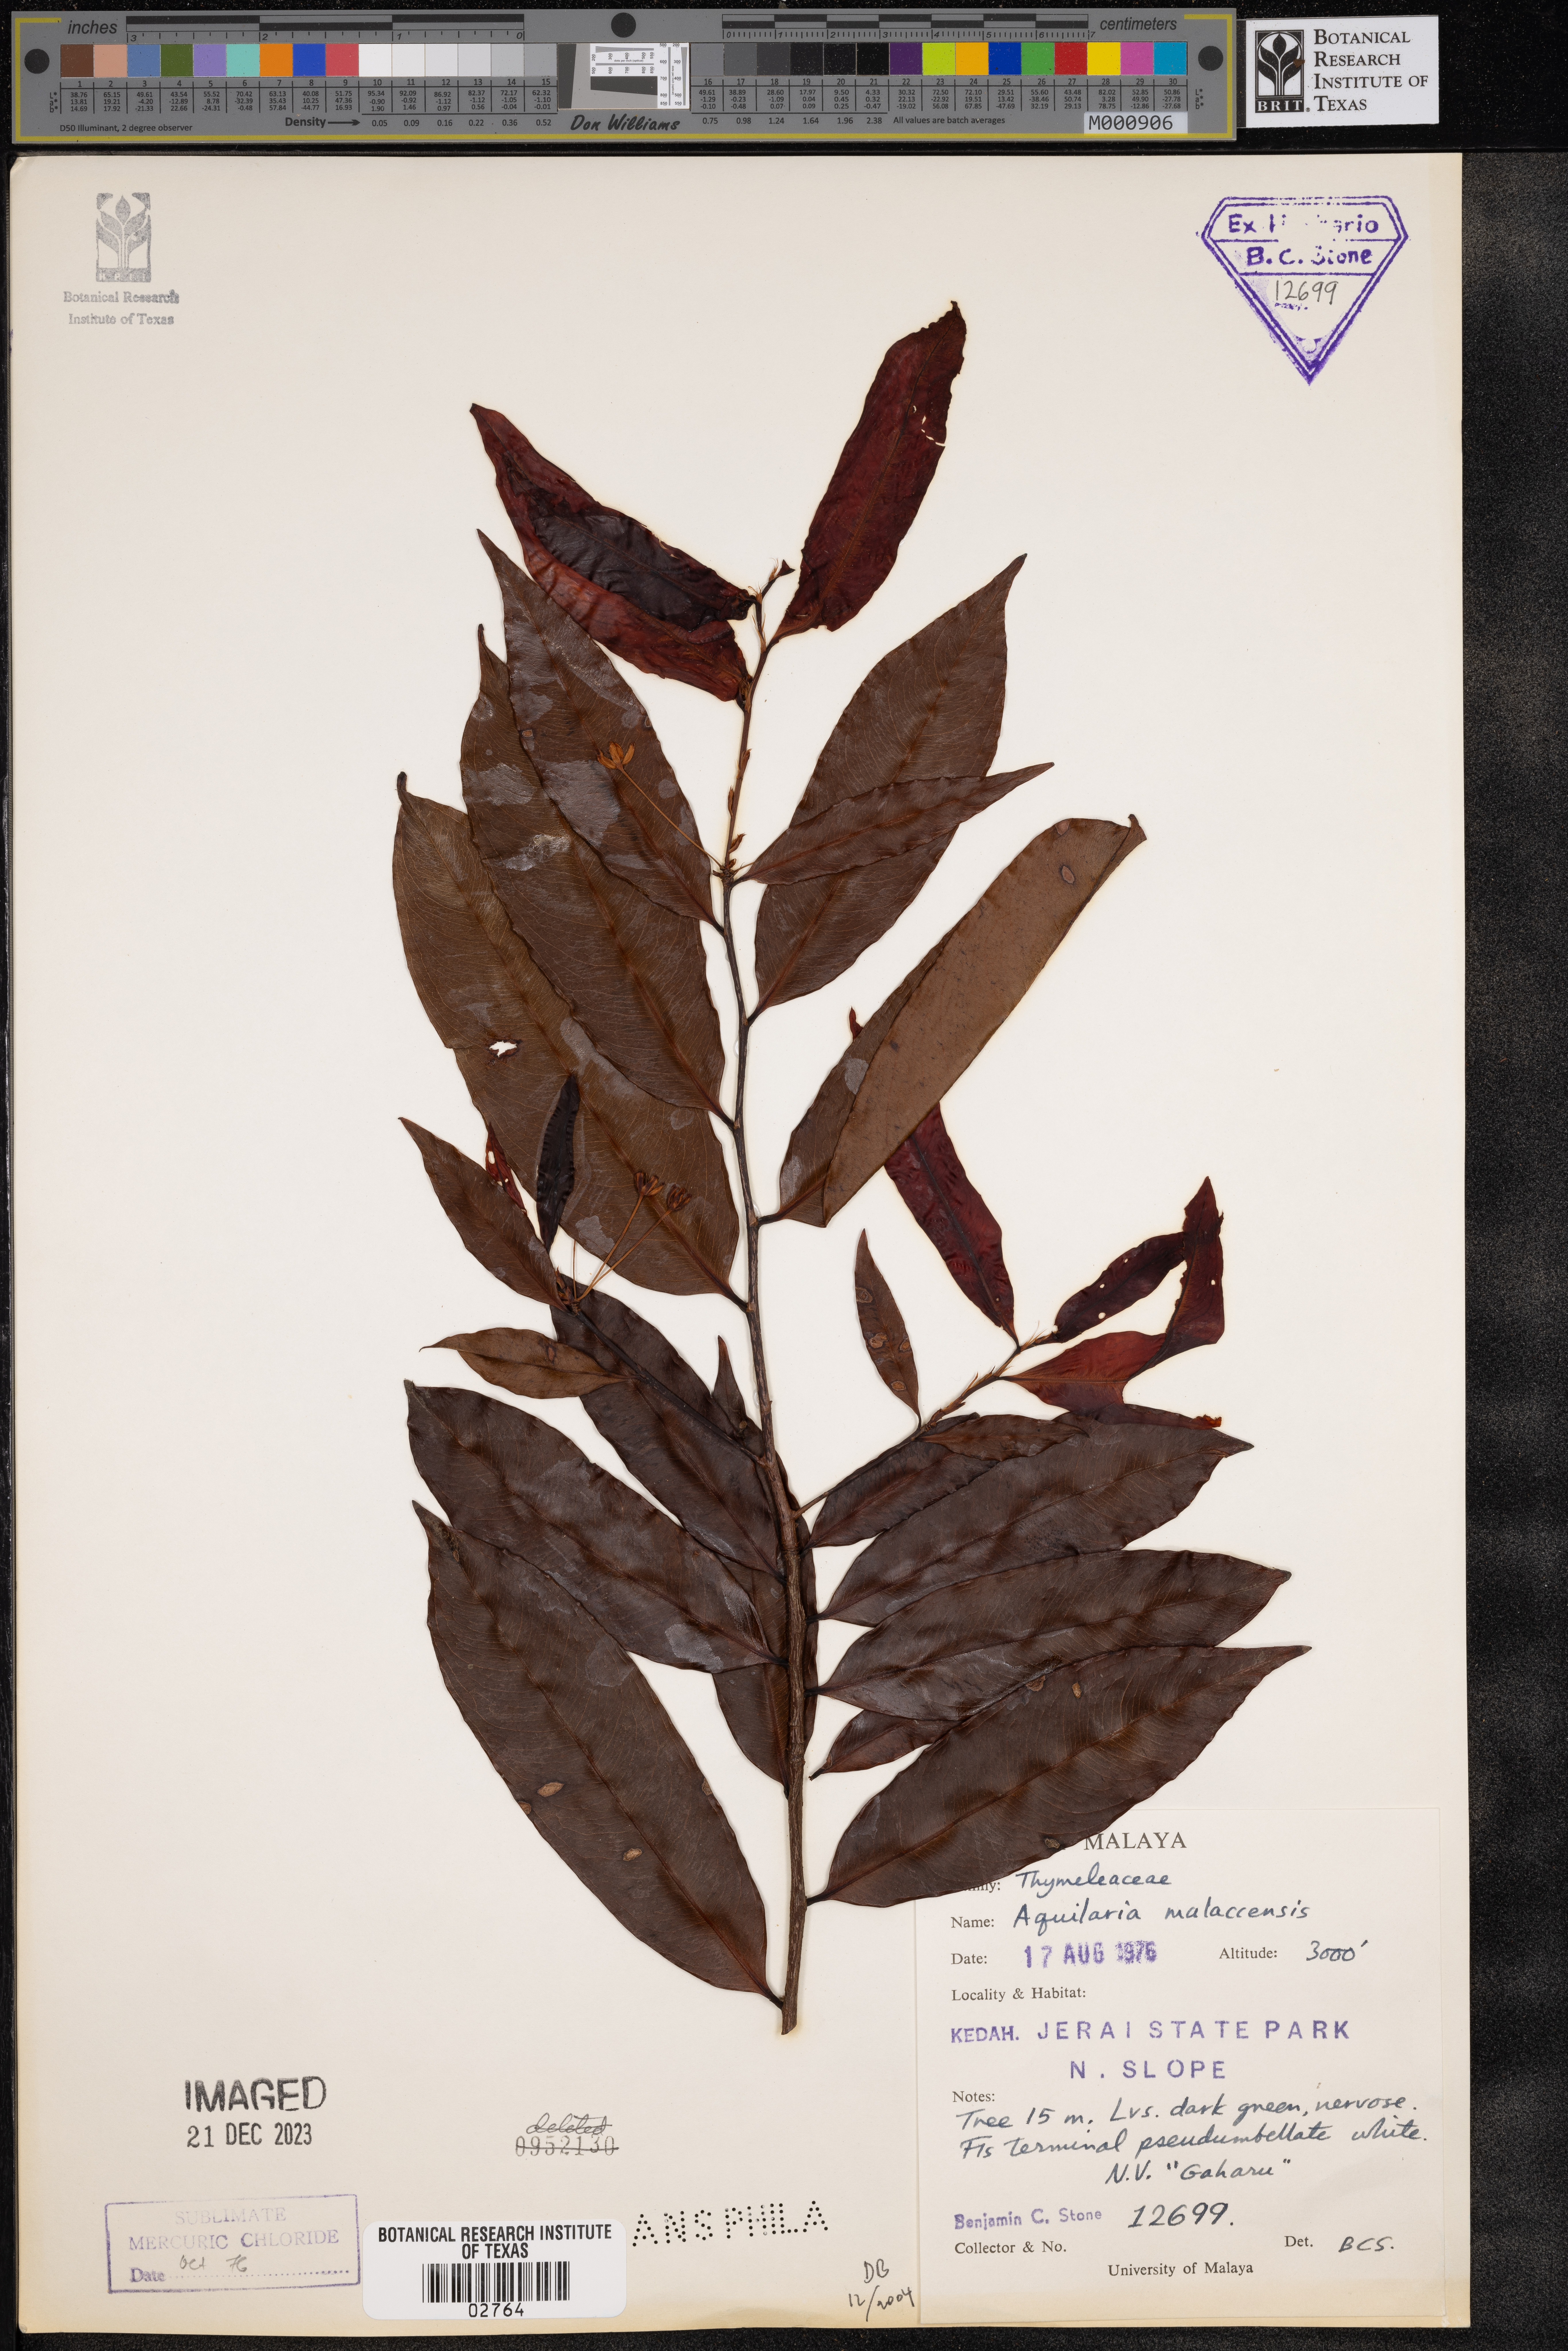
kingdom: Plantae
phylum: Tracheophyta
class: Magnoliopsida
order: Malvales
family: Thymelaeaceae
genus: Aquilaria
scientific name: Aquilaria malaccensis
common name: Agarwood
